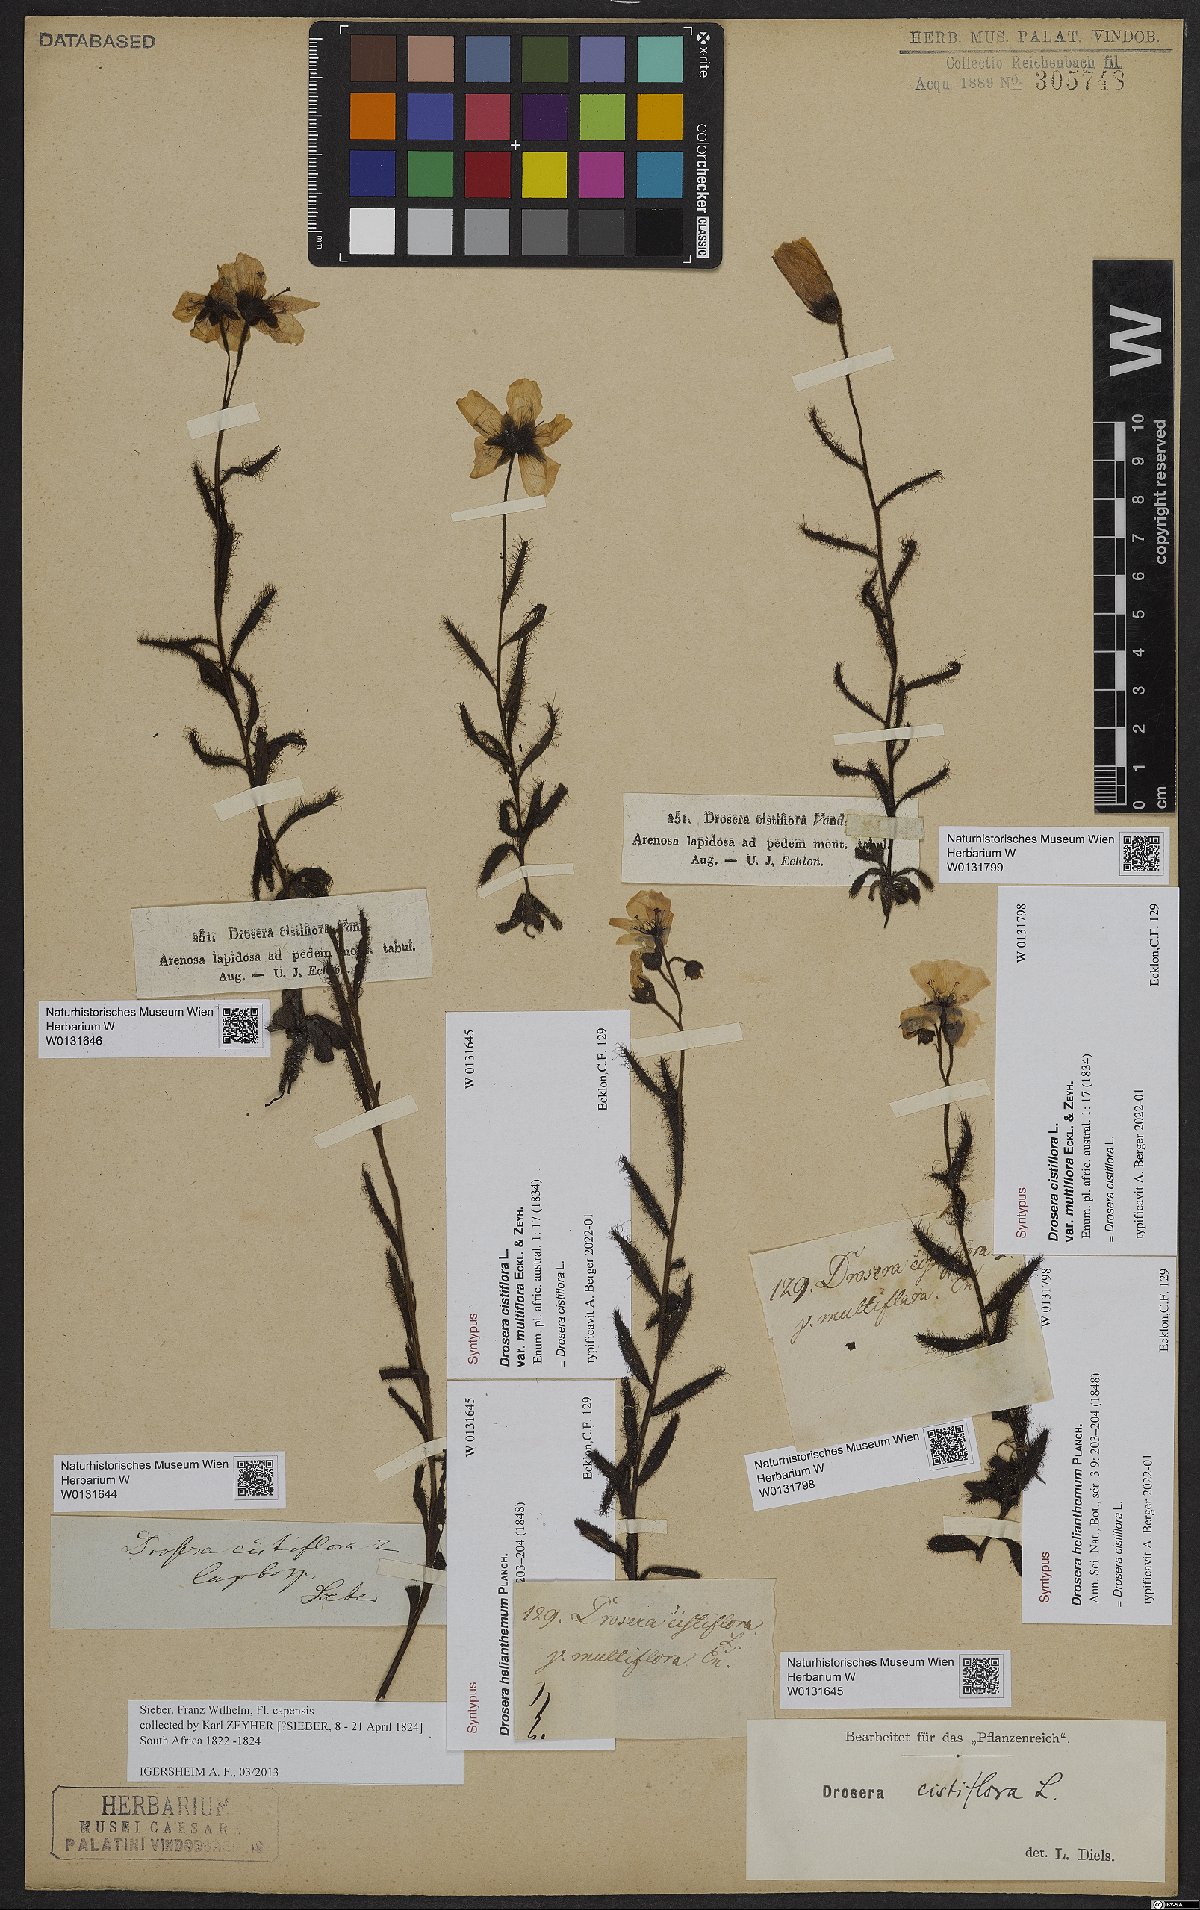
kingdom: Plantae
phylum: Tracheophyta
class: Magnoliopsida
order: Caryophyllales
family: Droseraceae
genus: Drosera
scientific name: Drosera cistiflora
